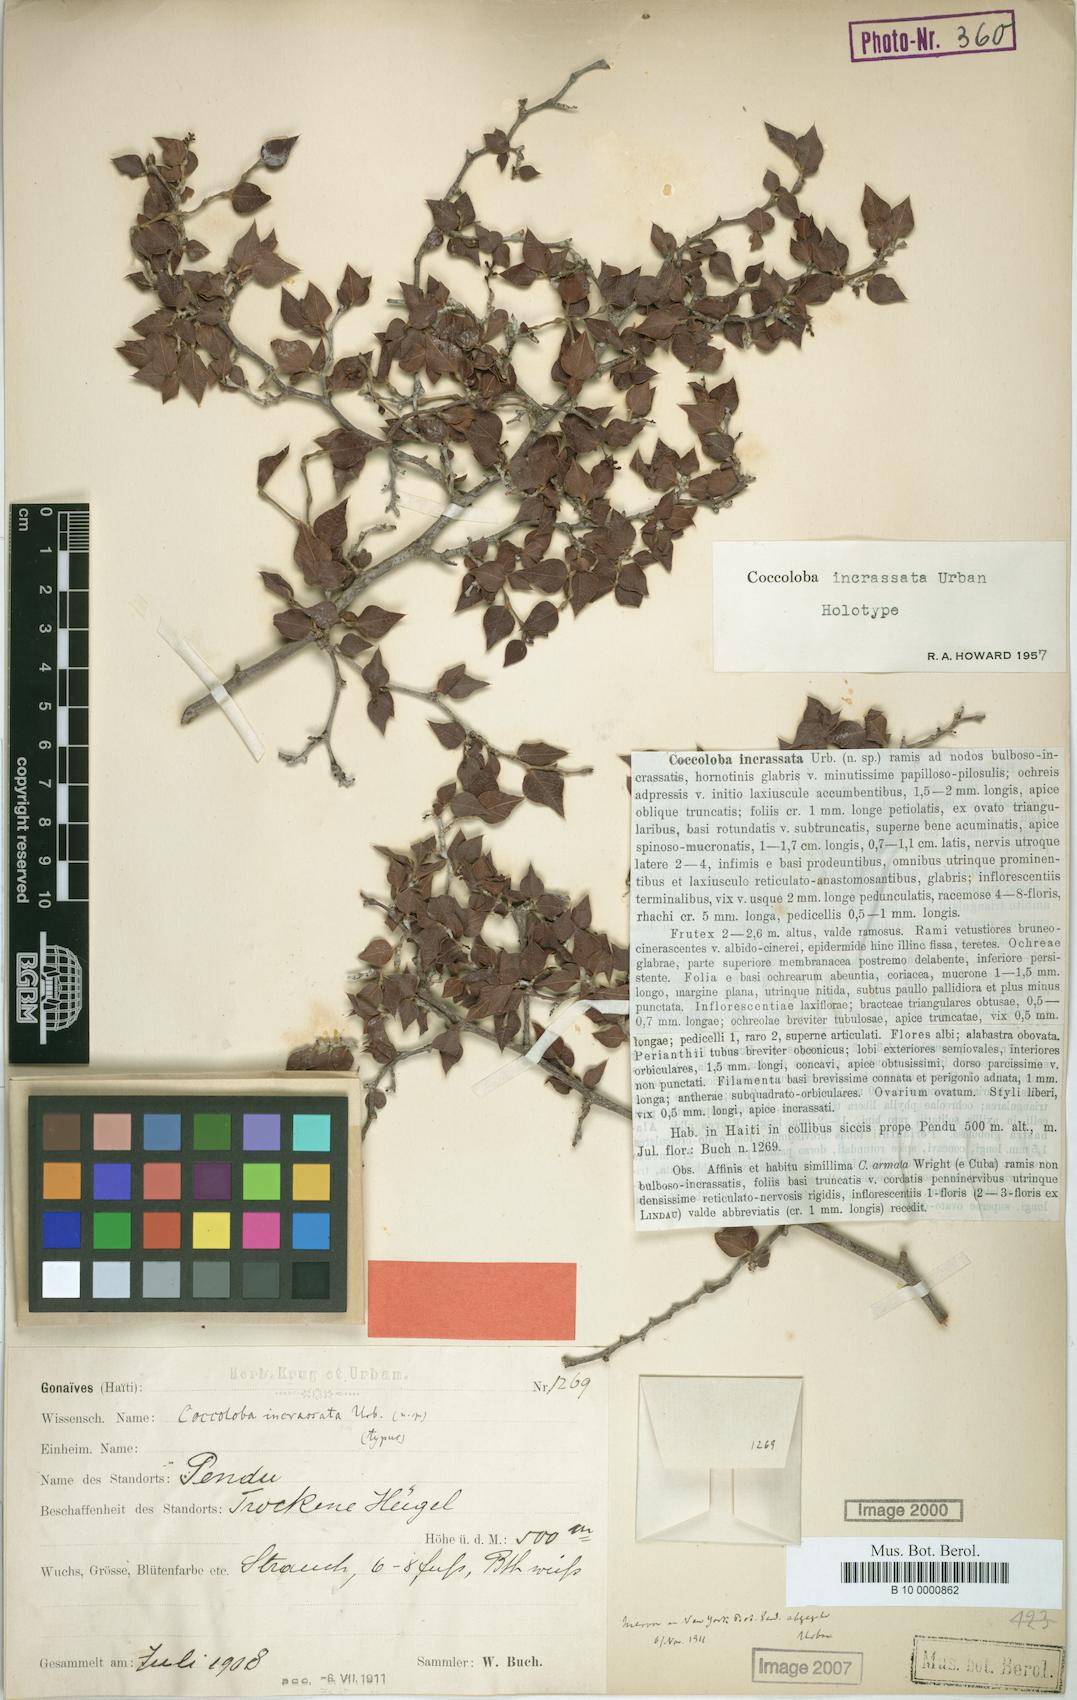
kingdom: Plantae
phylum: Tracheophyta
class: Magnoliopsida
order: Caryophyllales
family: Polygonaceae
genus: Coccoloba
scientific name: Coccoloba incrassata
